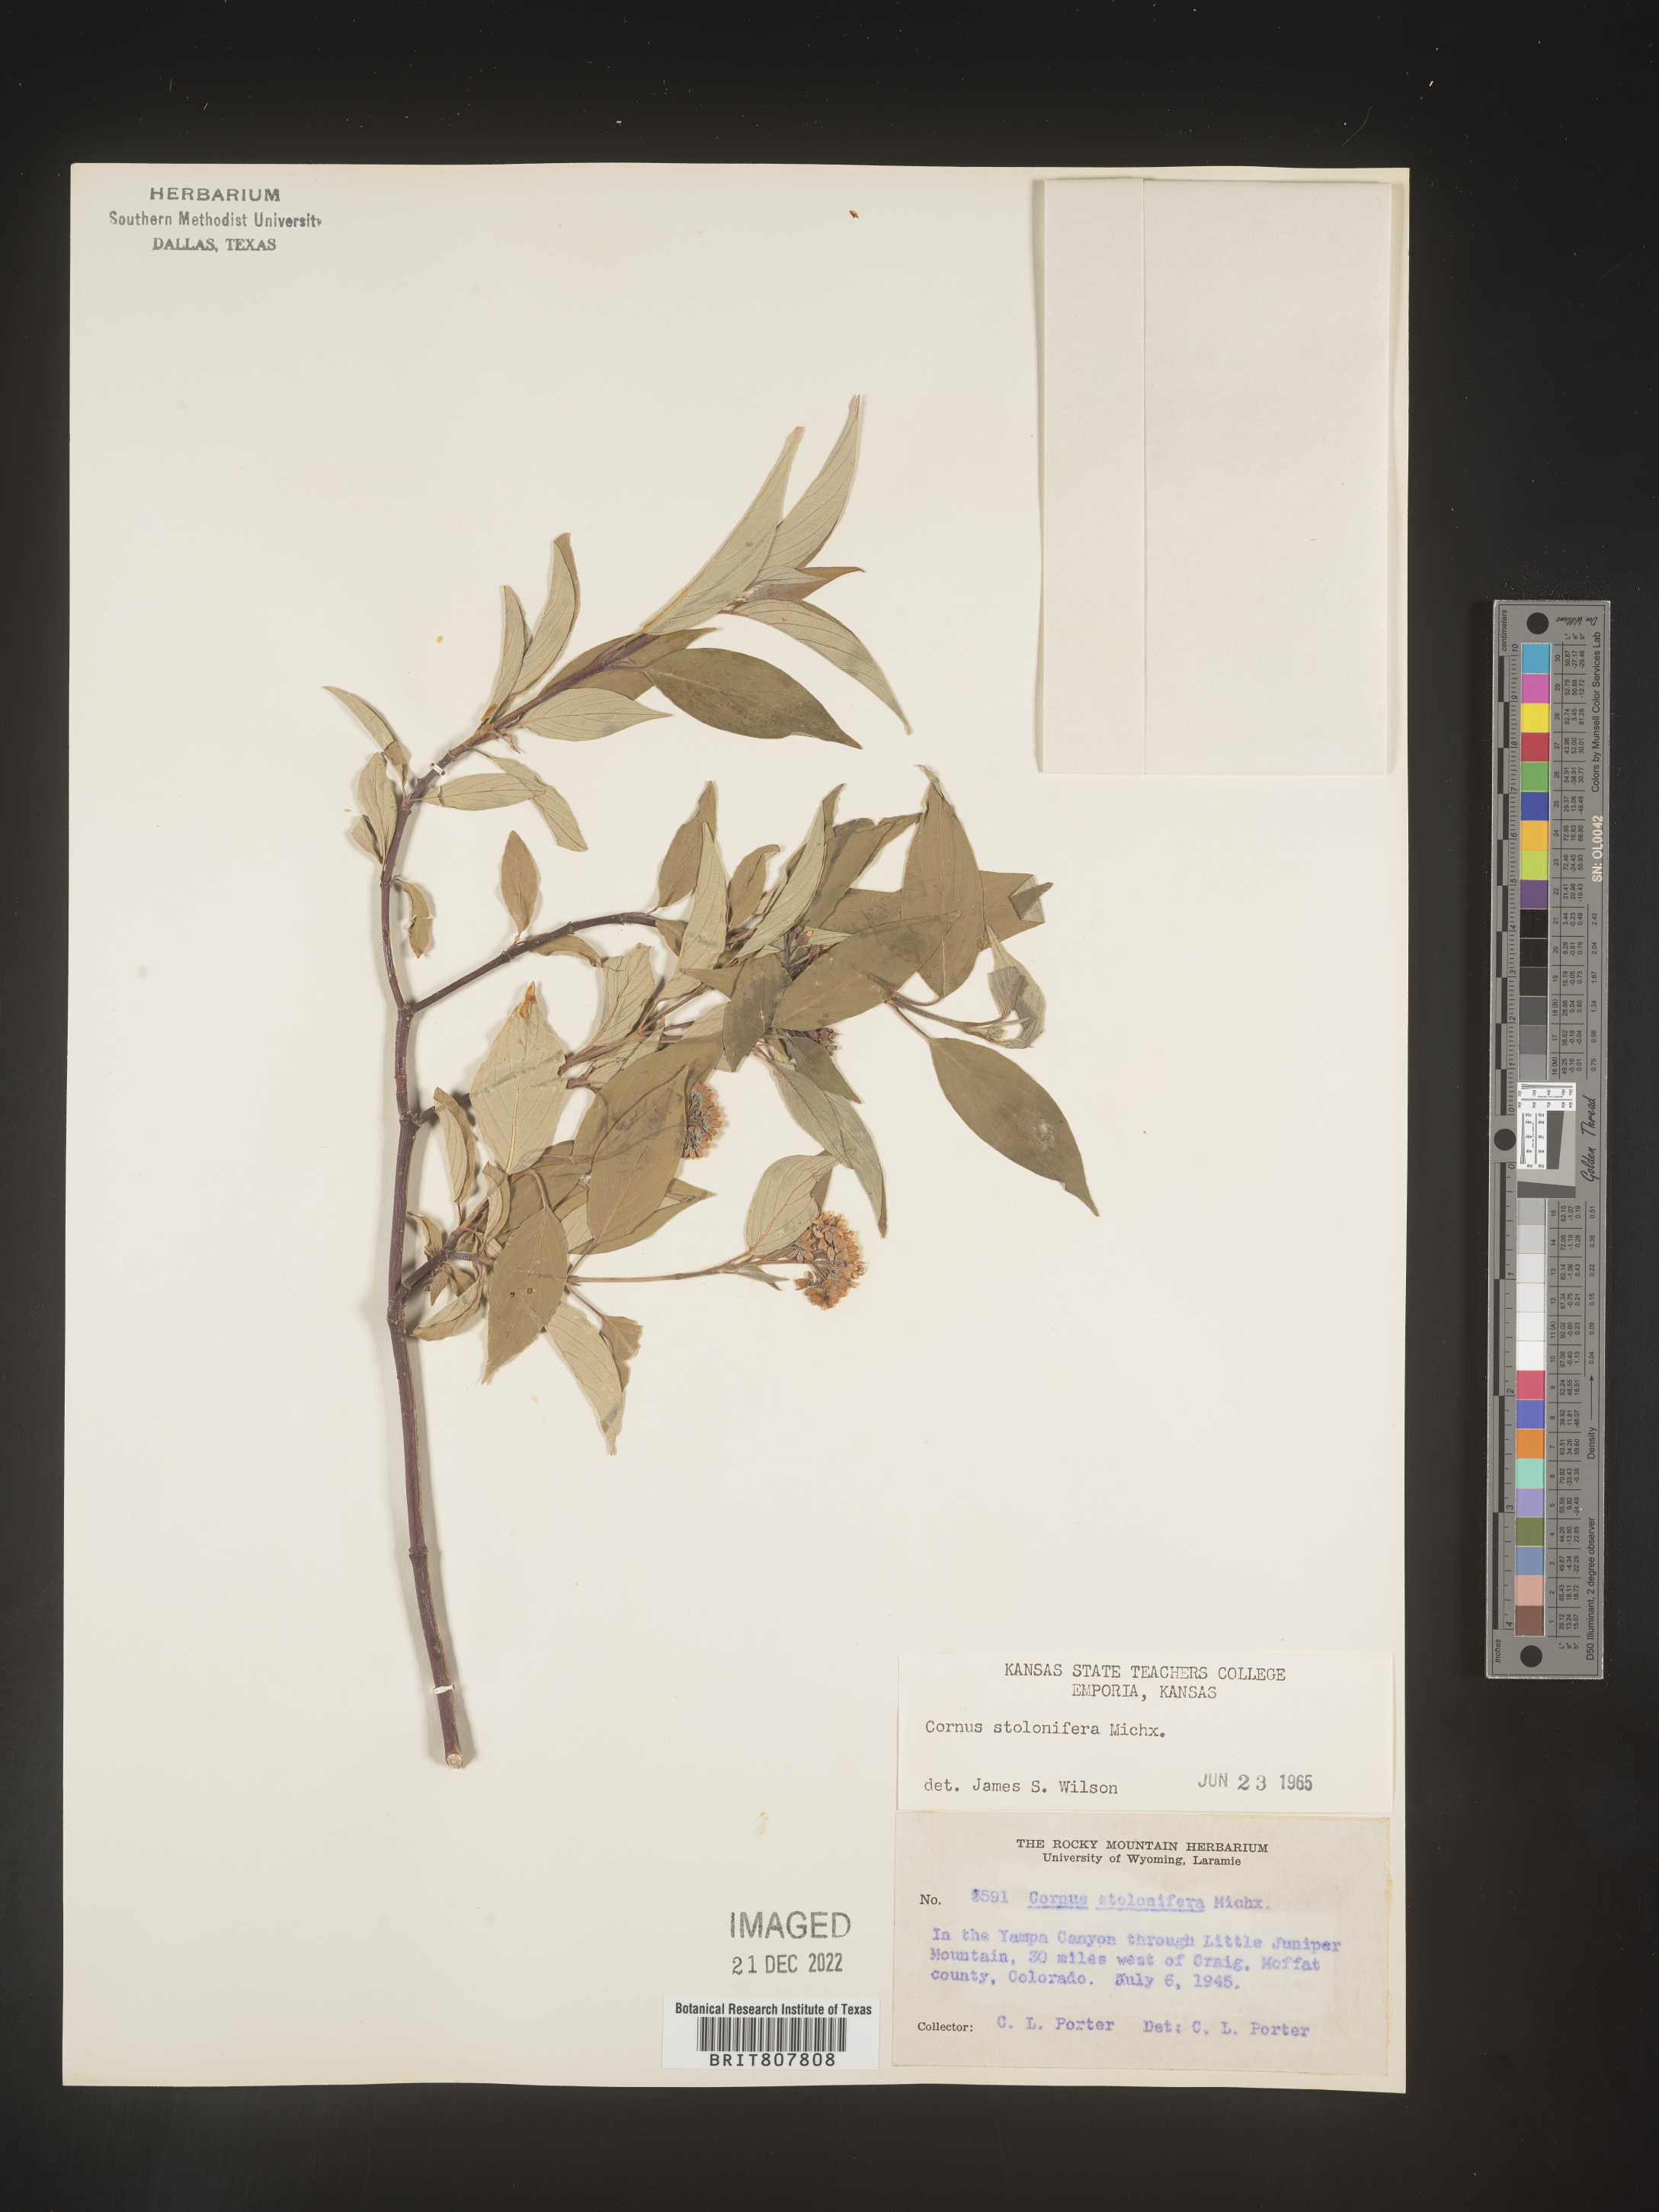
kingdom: Plantae
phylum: Tracheophyta
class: Magnoliopsida
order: Cornales
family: Cornaceae
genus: Cornus
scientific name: Cornus sericea
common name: Red-osier dogwood
